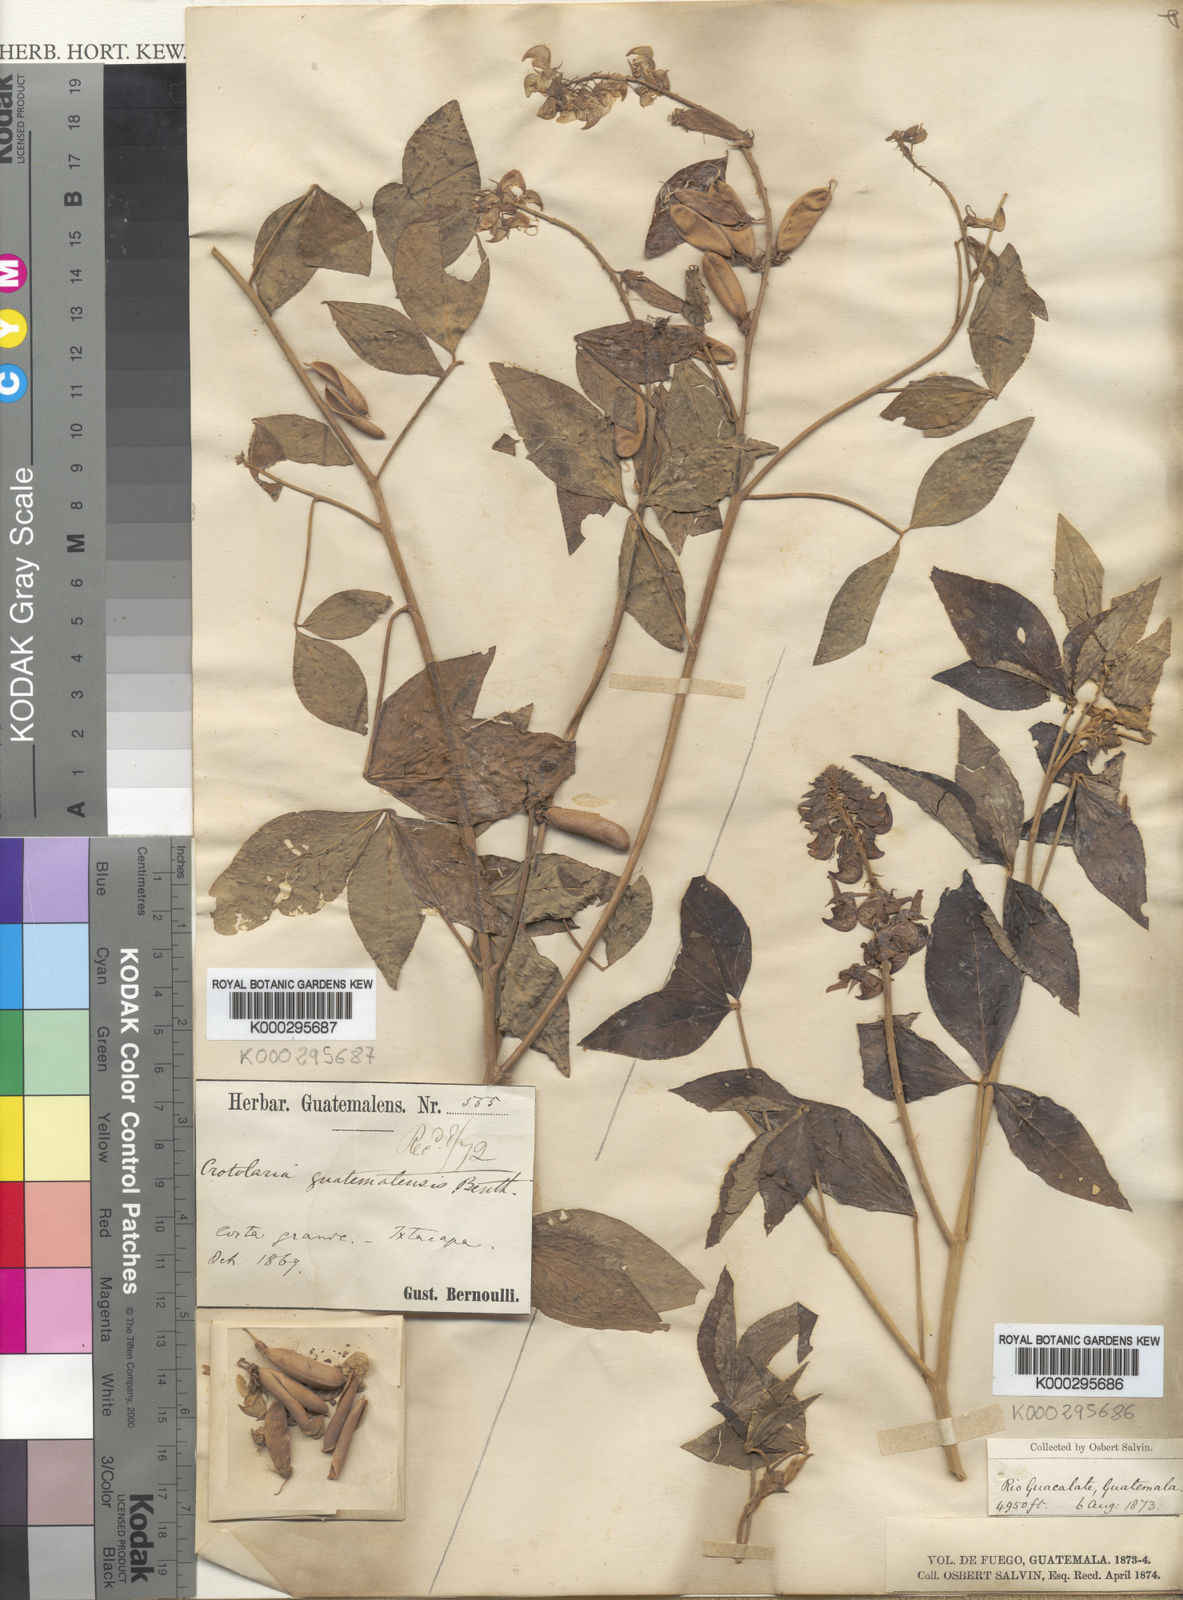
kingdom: Plantae
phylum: Tracheophyta
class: Magnoliopsida
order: Fabales
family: Fabaceae
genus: Crotalaria
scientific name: Crotalaria cajanifolia
